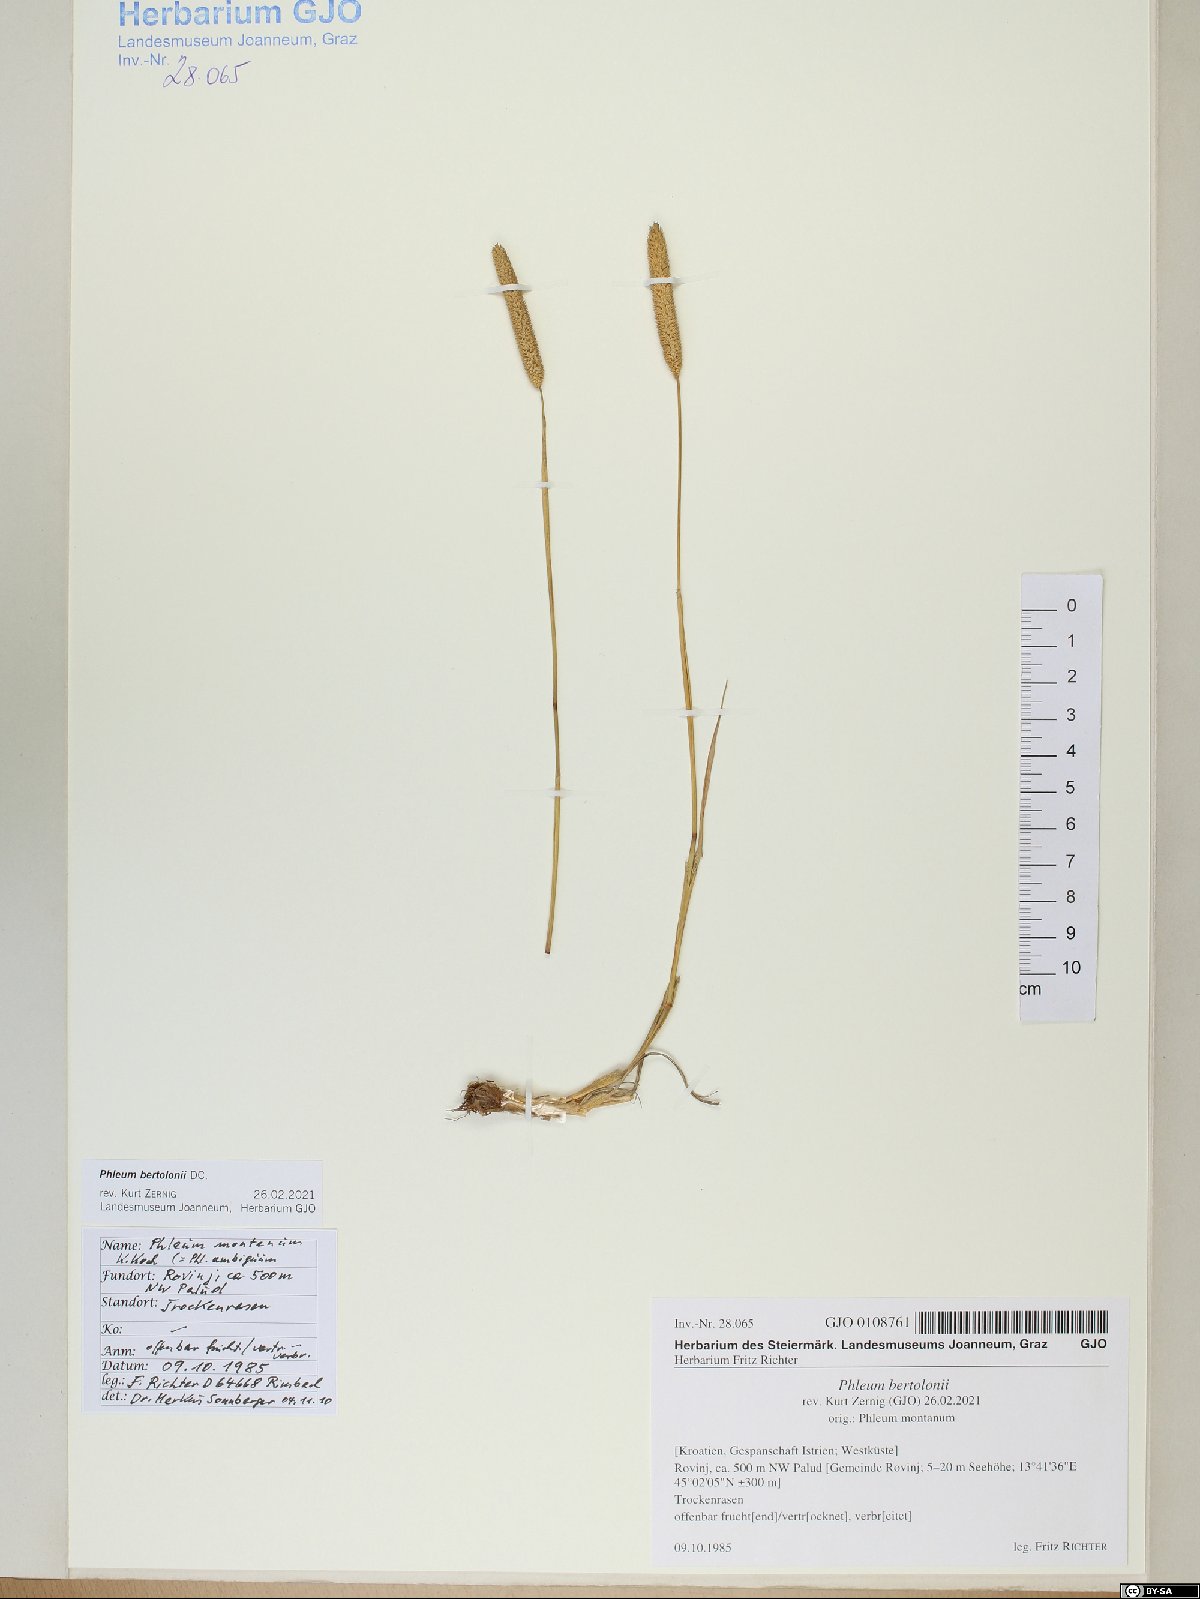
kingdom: Plantae
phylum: Tracheophyta
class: Liliopsida
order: Poales
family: Poaceae
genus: Phleum
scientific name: Phleum bertolonii
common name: Smaller cat's-tail
